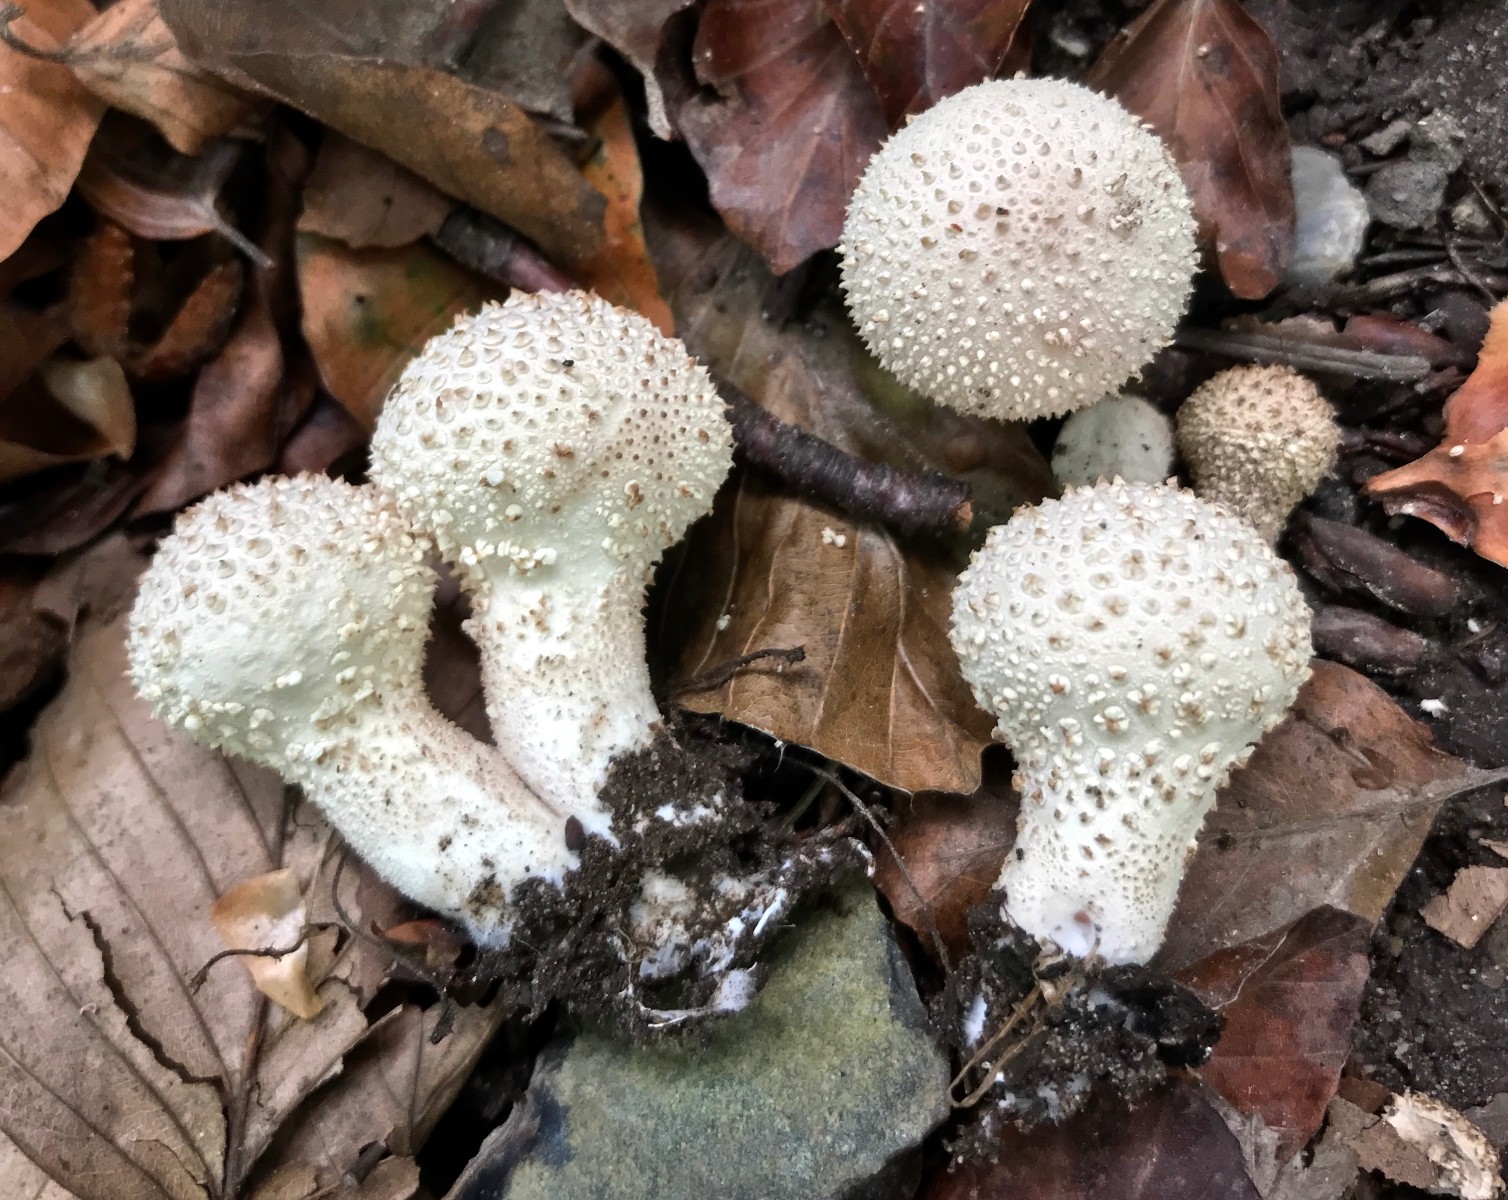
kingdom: Fungi
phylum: Basidiomycota
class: Agaricomycetes
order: Agaricales
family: Lycoperdaceae
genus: Lycoperdon
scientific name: Lycoperdon perlatum
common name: krystal-støvbold
